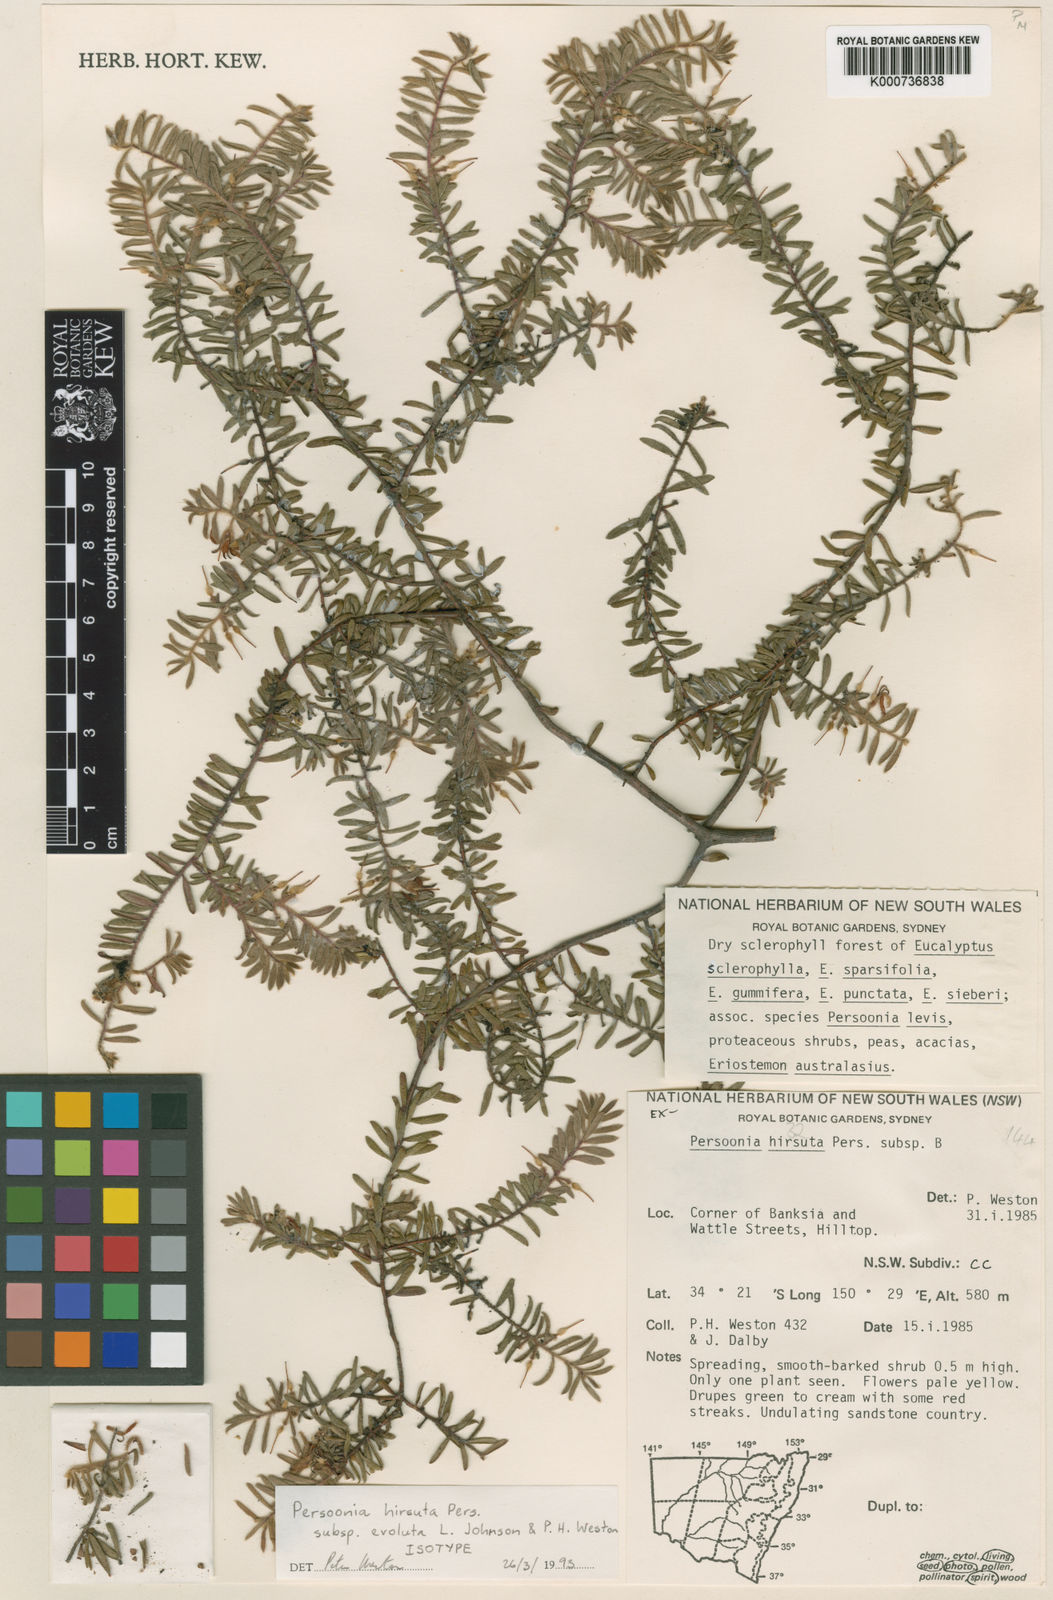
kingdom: Plantae
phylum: Tracheophyta
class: Magnoliopsida
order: Proteales
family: Proteaceae
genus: Persoonia
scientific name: Persoonia hirsuta
